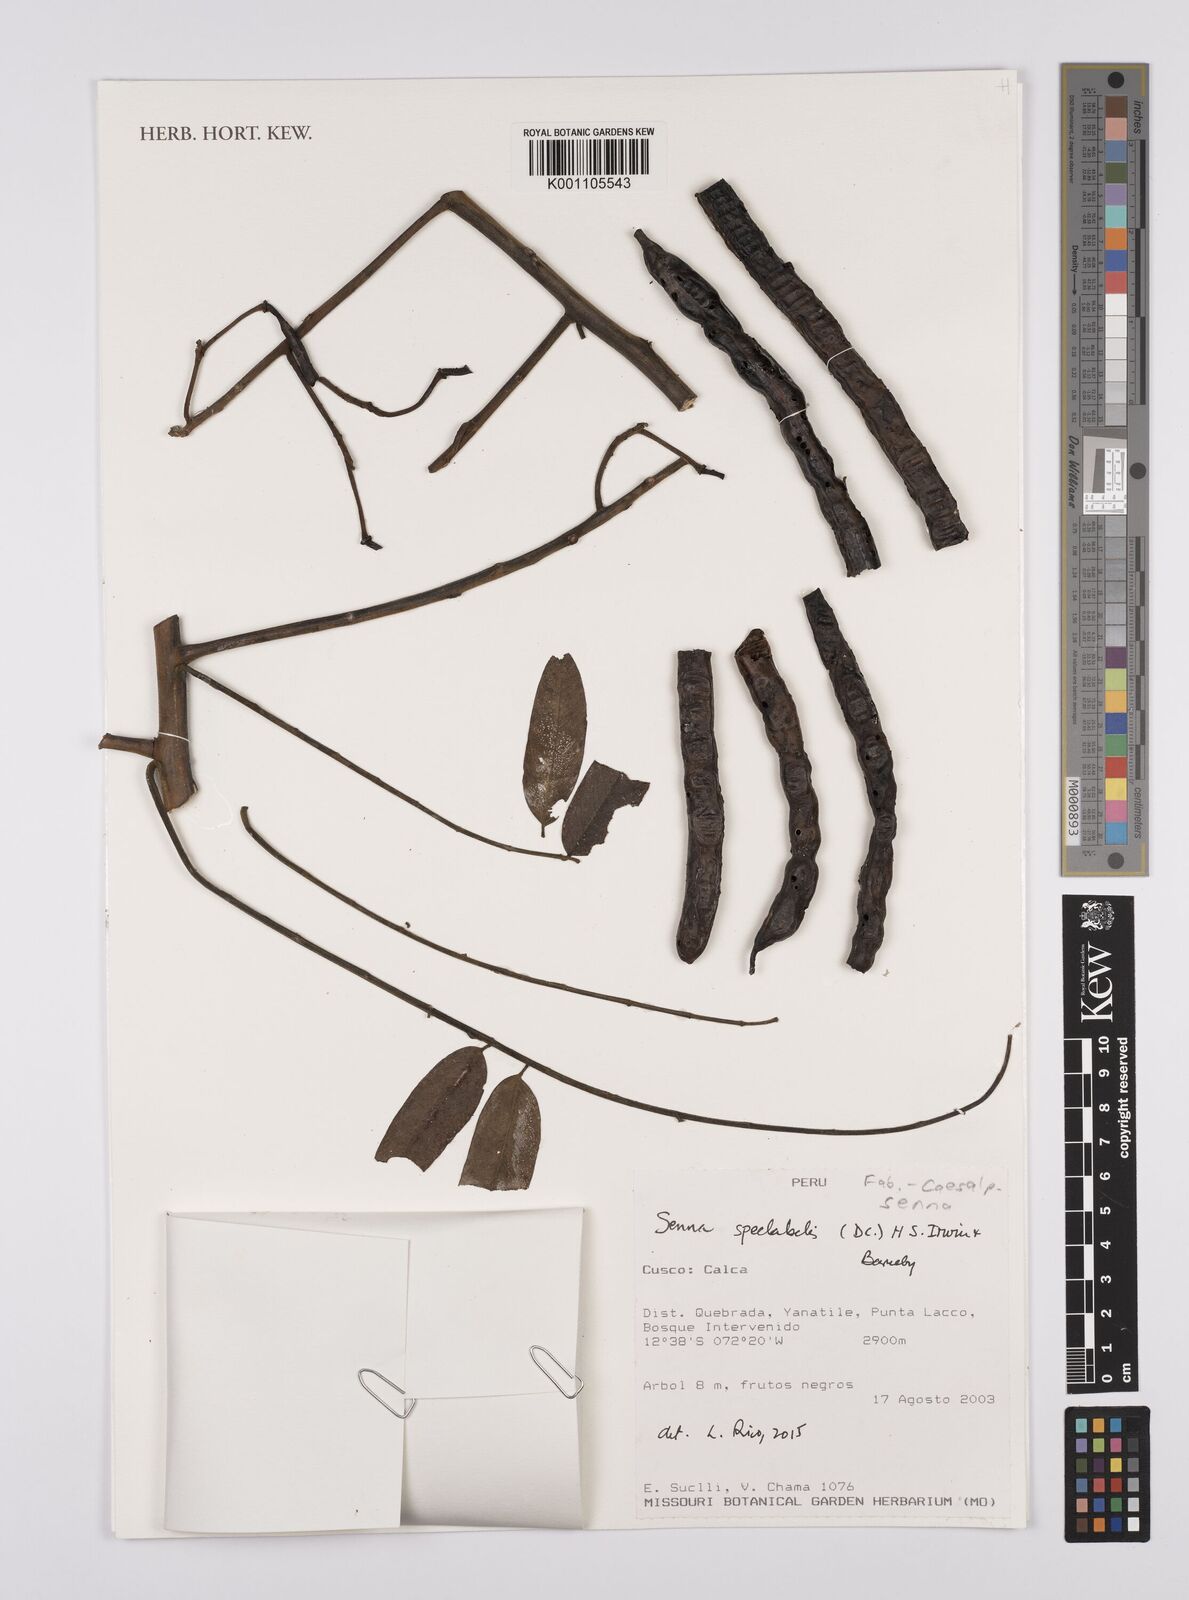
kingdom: Plantae
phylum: Tracheophyta
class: Magnoliopsida
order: Fabales
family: Fabaceae
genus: Senna
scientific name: Senna spectabilis
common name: Casia amarilla
